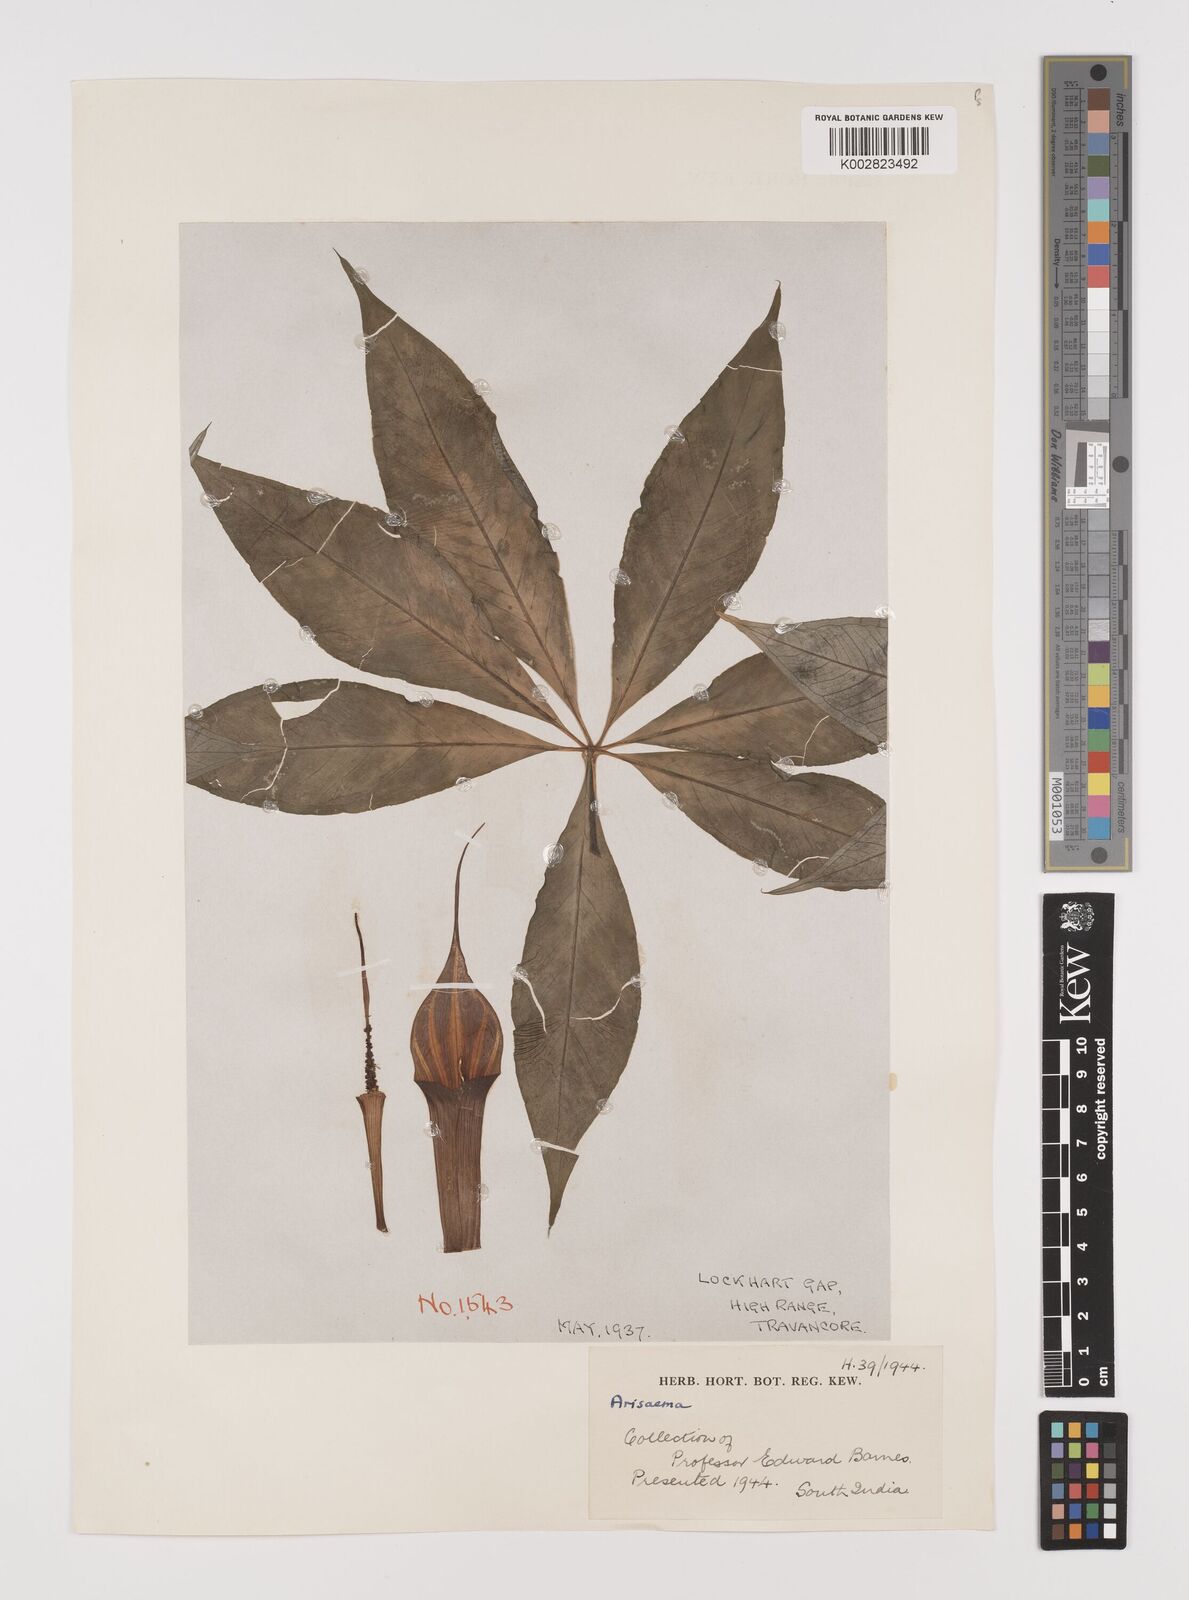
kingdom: Plantae
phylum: Tracheophyta
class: Liliopsida
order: Alismatales
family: Araceae
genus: Arisaema
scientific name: Arisaema
